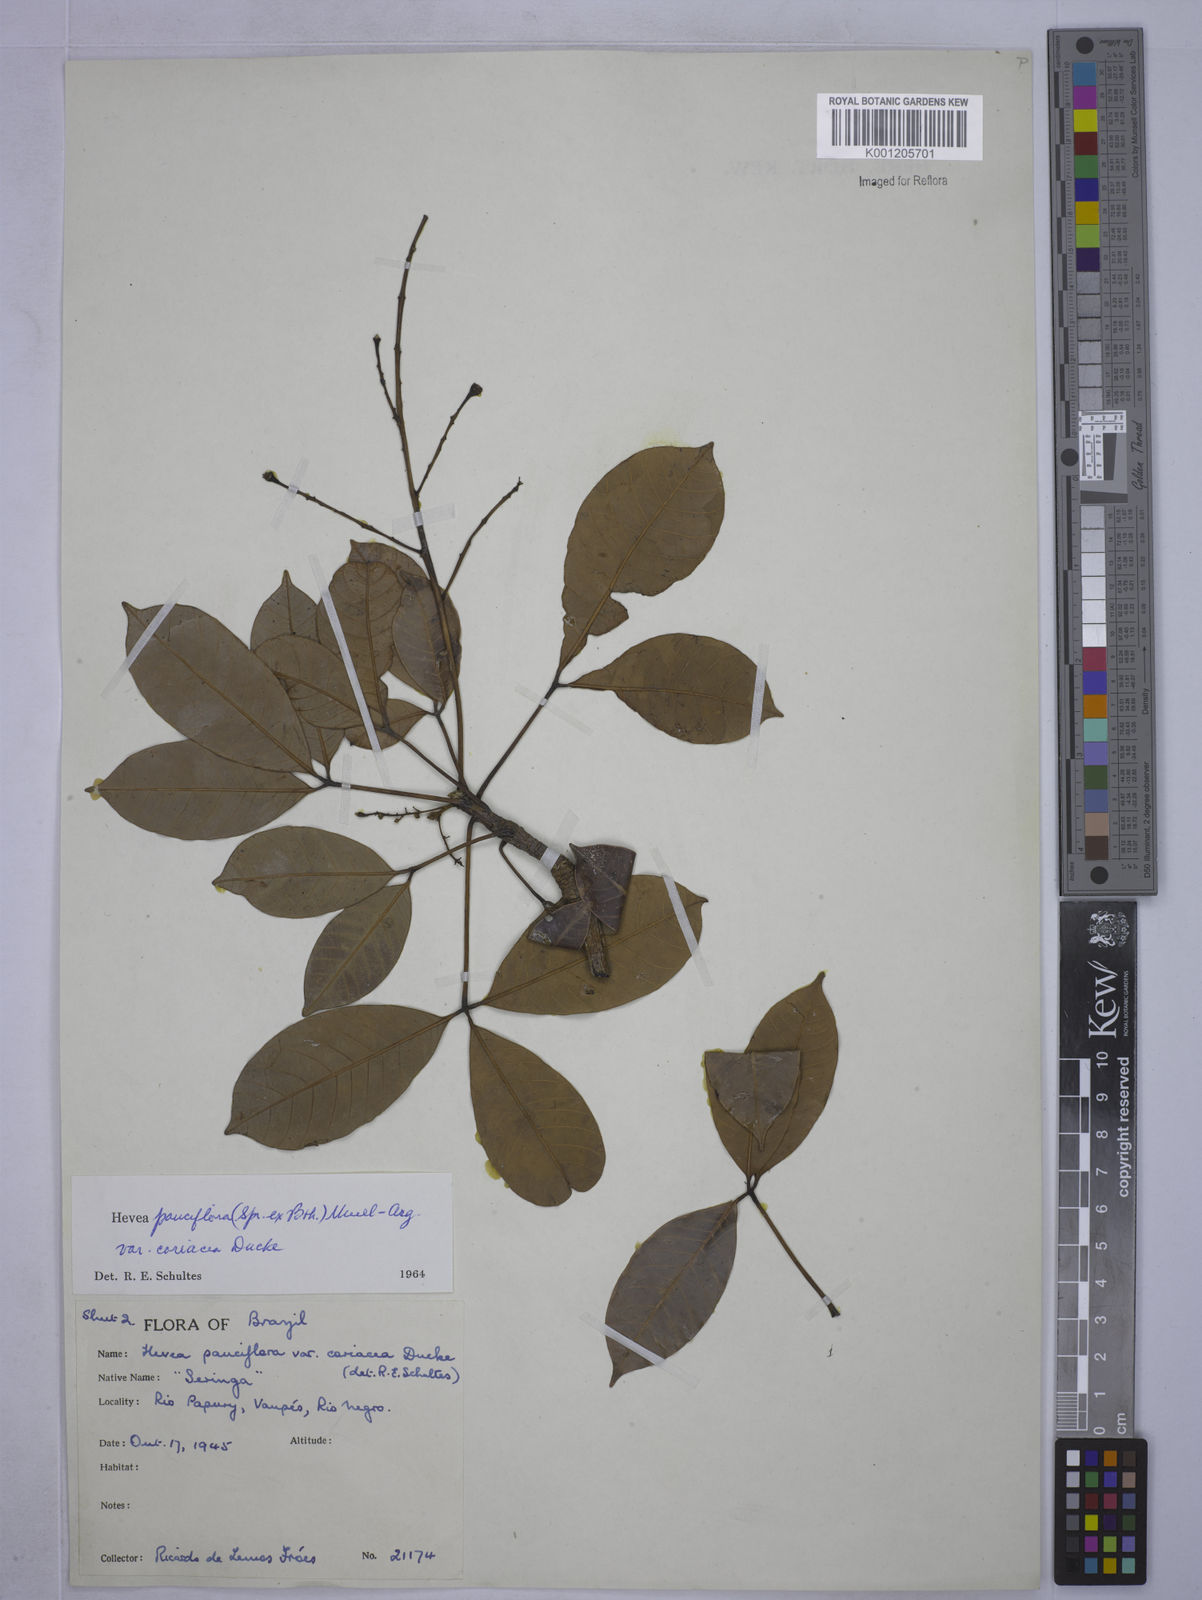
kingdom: Plantae
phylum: Tracheophyta
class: Magnoliopsida
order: Malpighiales
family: Euphorbiaceae
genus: Hevea
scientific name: Hevea pauciflora
